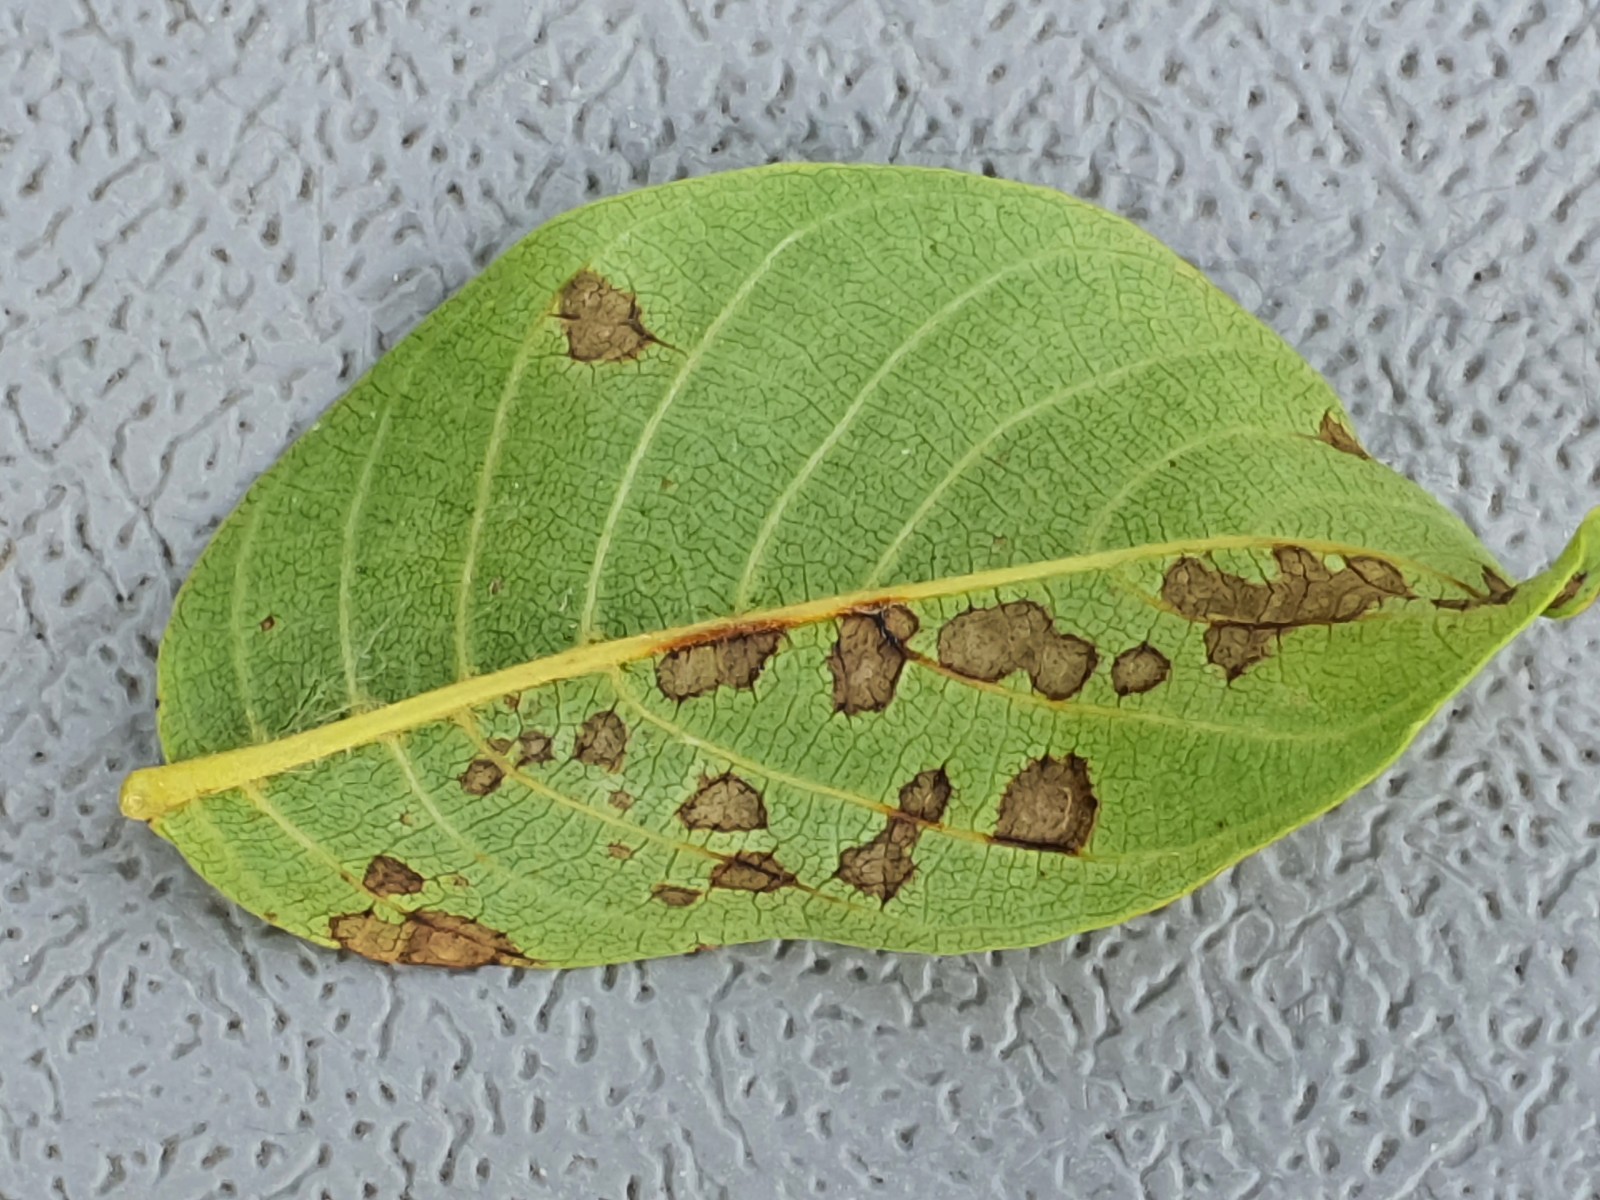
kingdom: Fungi
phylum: Ascomycota
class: Sordariomycetes
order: Diaporthales
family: Gnomoniaceae
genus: Ophiognomonia
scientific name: Ophiognomonia leptostyla
